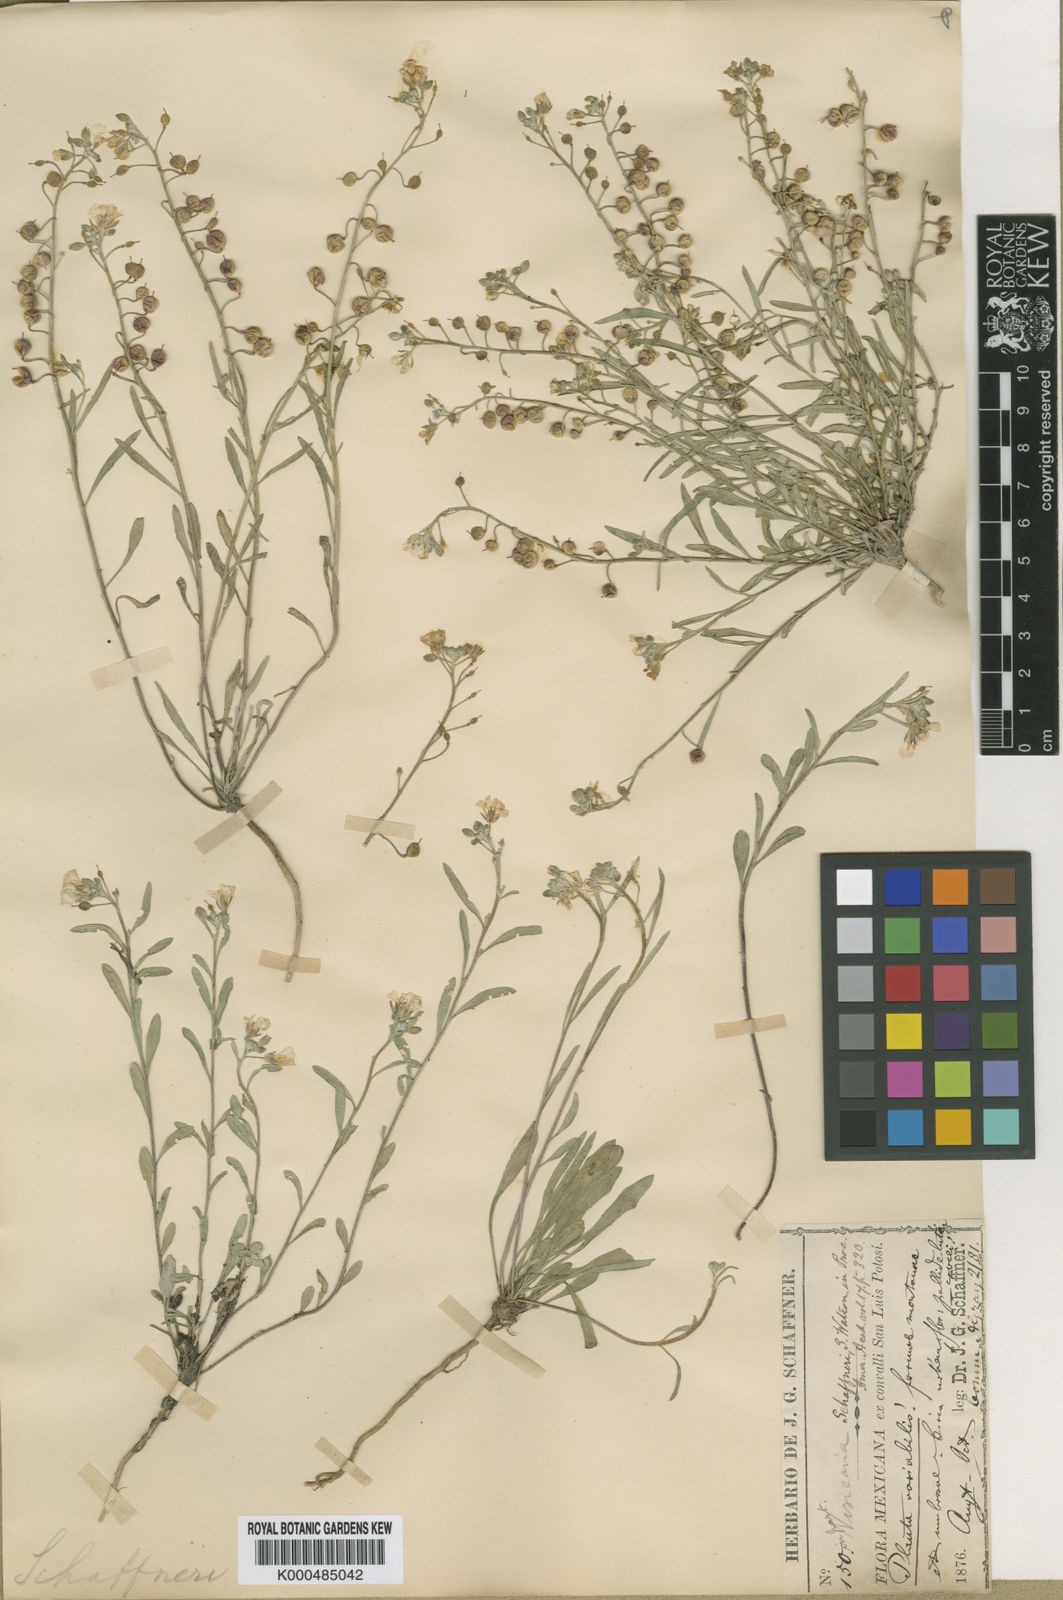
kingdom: Plantae
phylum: Tracheophyta
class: Magnoliopsida
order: Brassicales
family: Brassicaceae
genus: Physaria
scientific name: Physaria schaffneri
